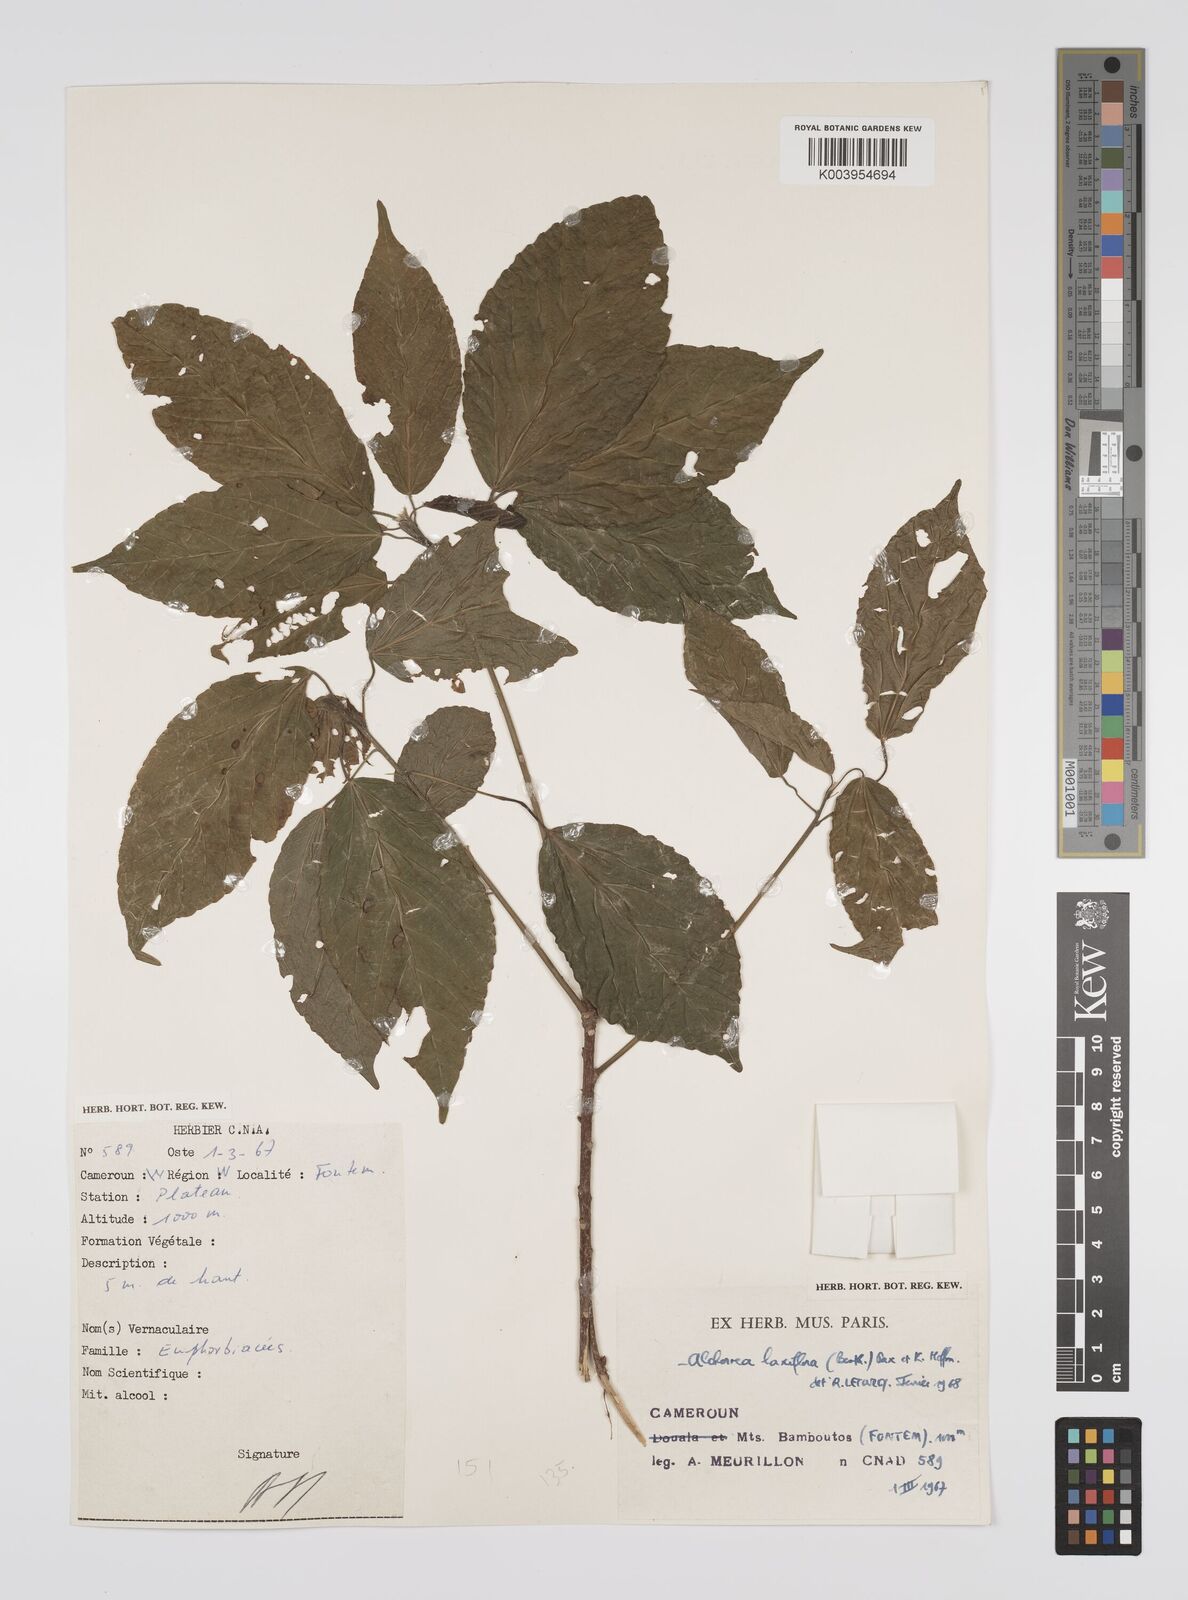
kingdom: Plantae
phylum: Tracheophyta
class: Magnoliopsida
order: Malpighiales
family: Euphorbiaceae
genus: Alchornea
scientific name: Alchornea laxiflora
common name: Lowveld bead-string
